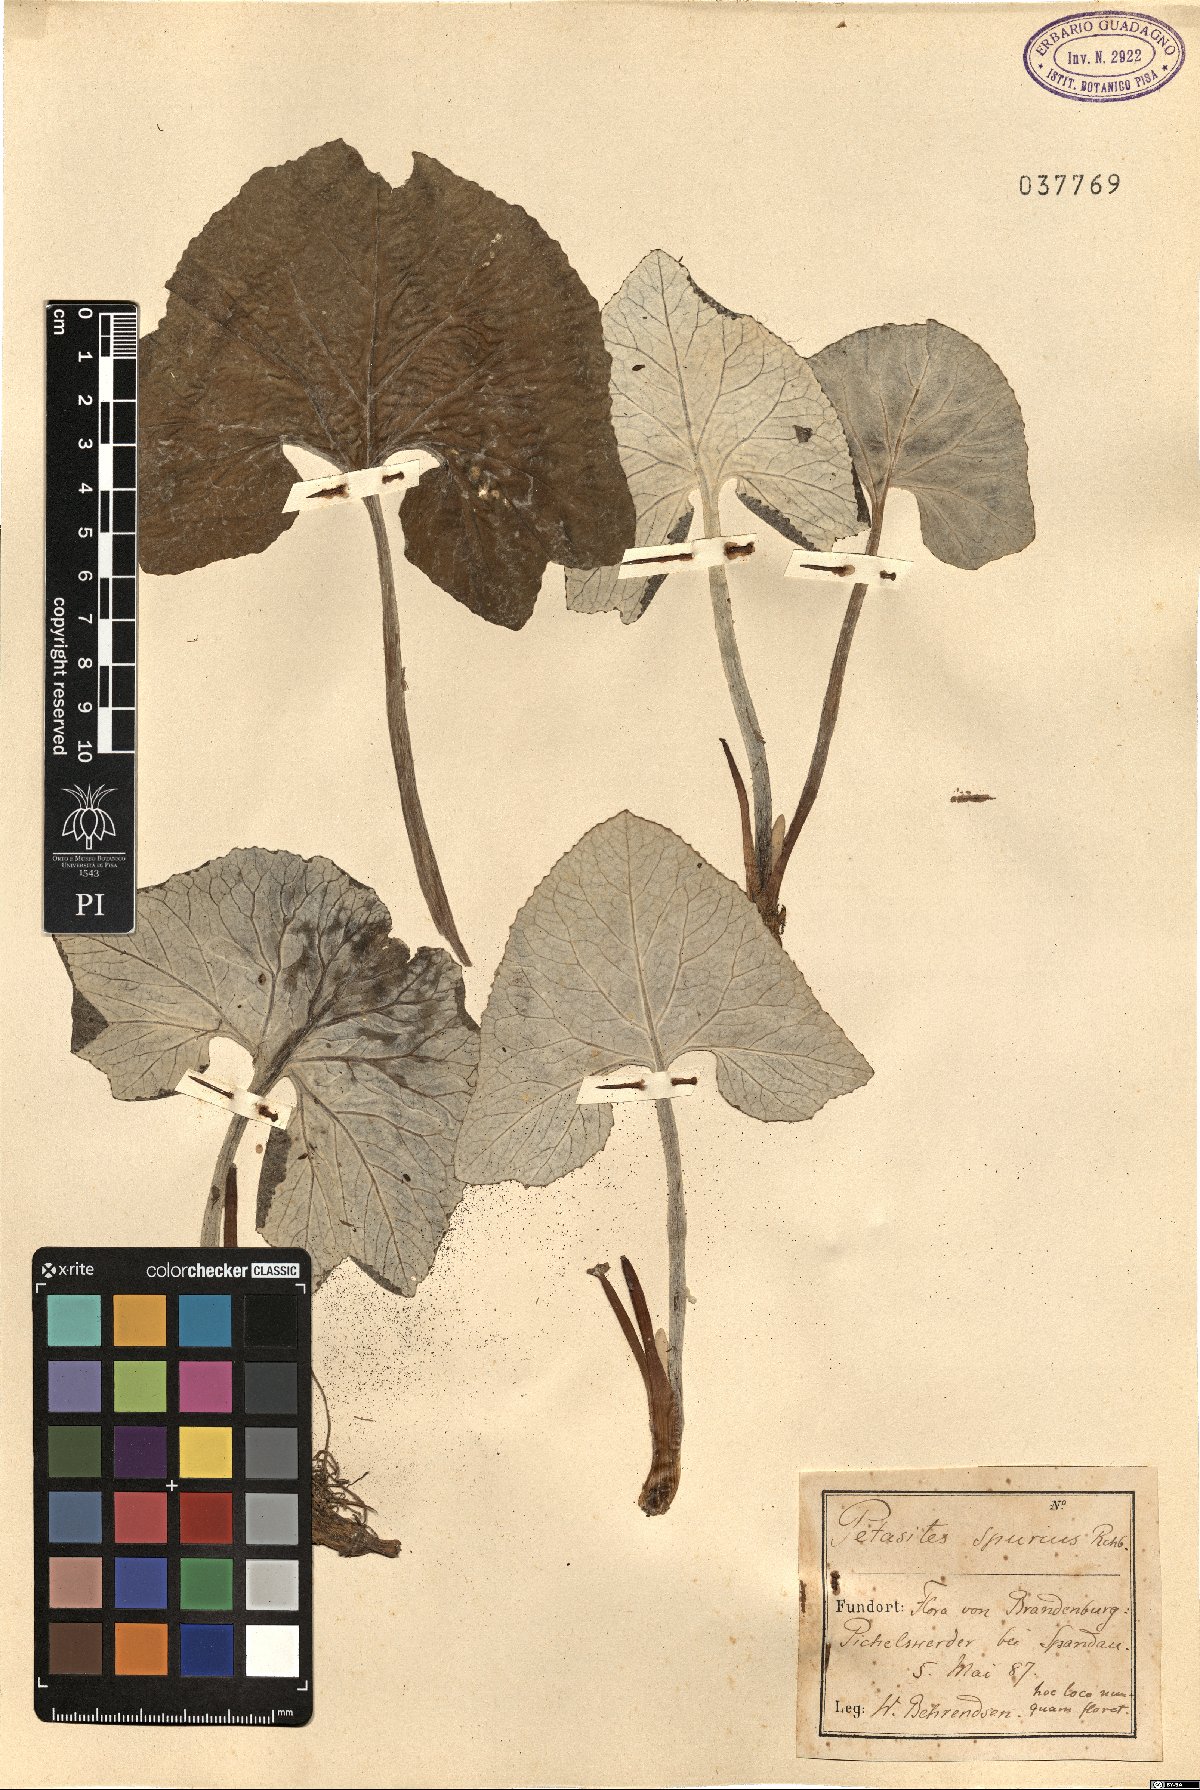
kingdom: Plantae
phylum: Tracheophyta
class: Magnoliopsida
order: Asterales
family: Asteraceae
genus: Petasites
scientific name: Petasites spurius
